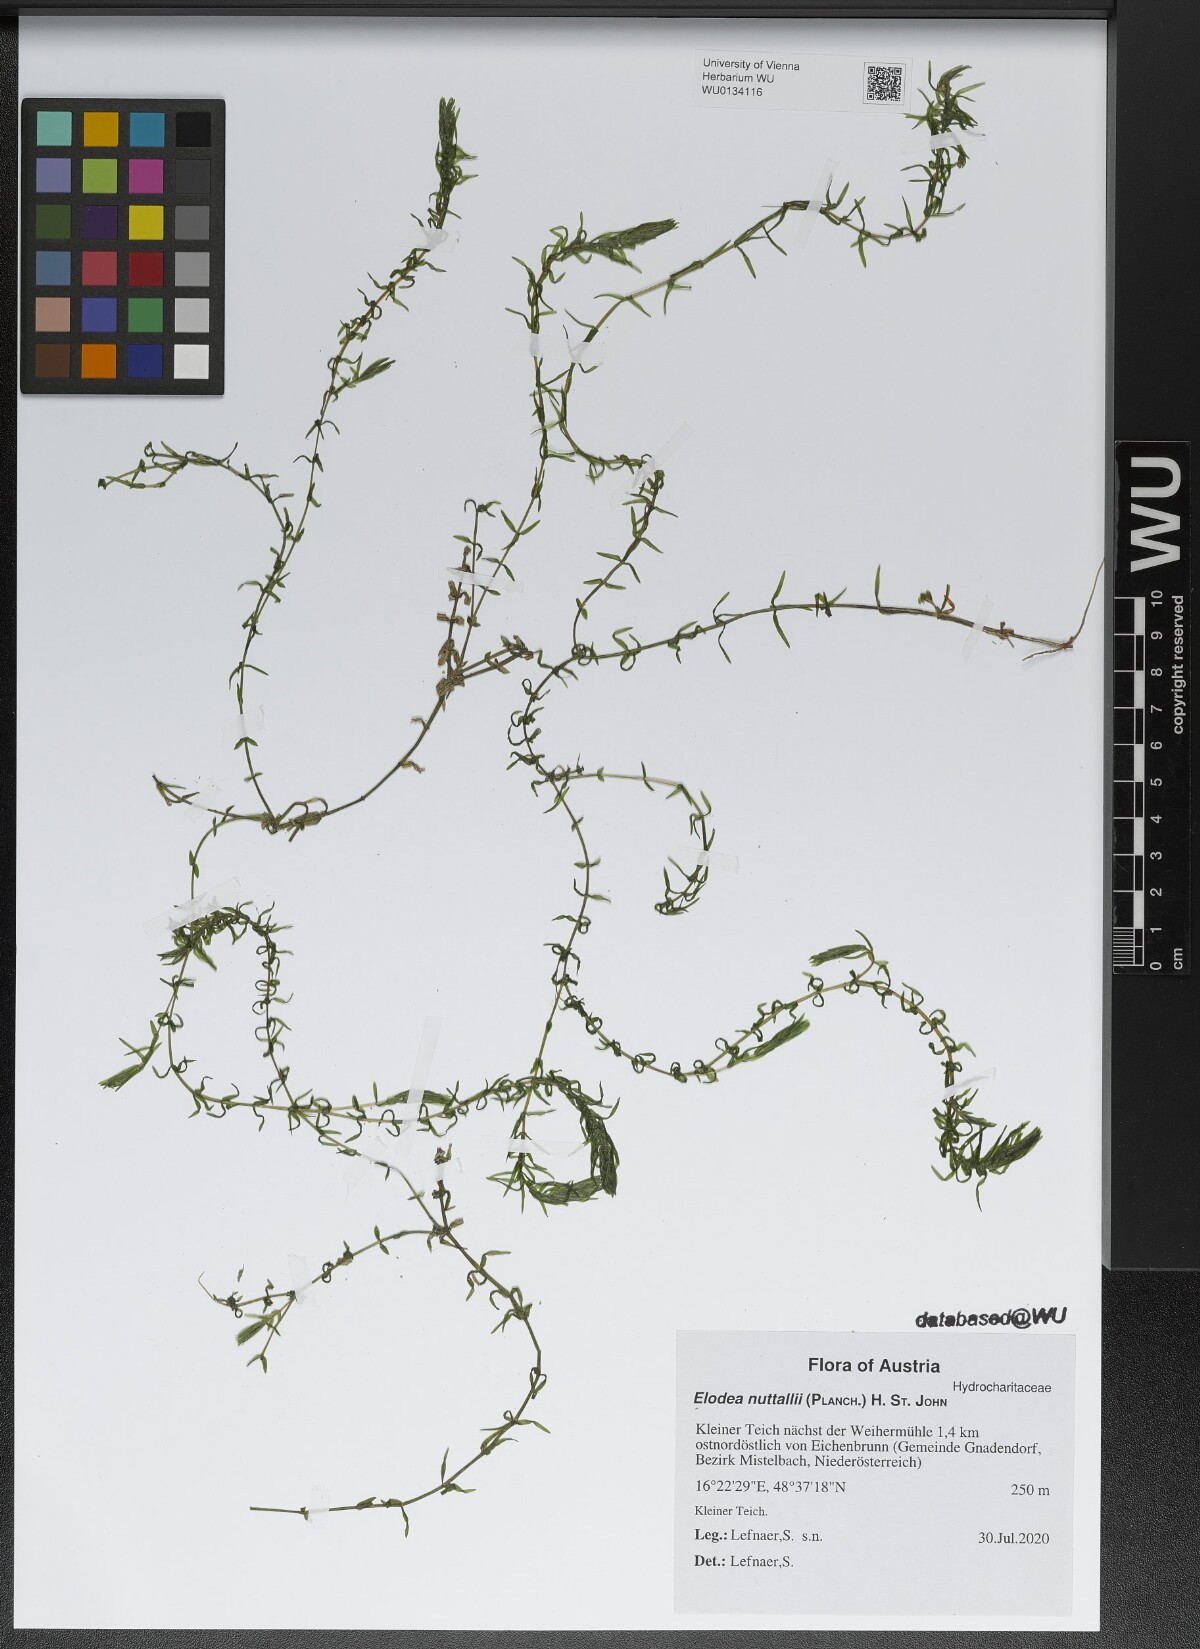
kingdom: Plantae
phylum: Tracheophyta
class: Liliopsida
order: Alismatales
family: Hydrocharitaceae
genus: Elodea
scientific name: Elodea nuttallii
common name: Nuttall's waterweed
